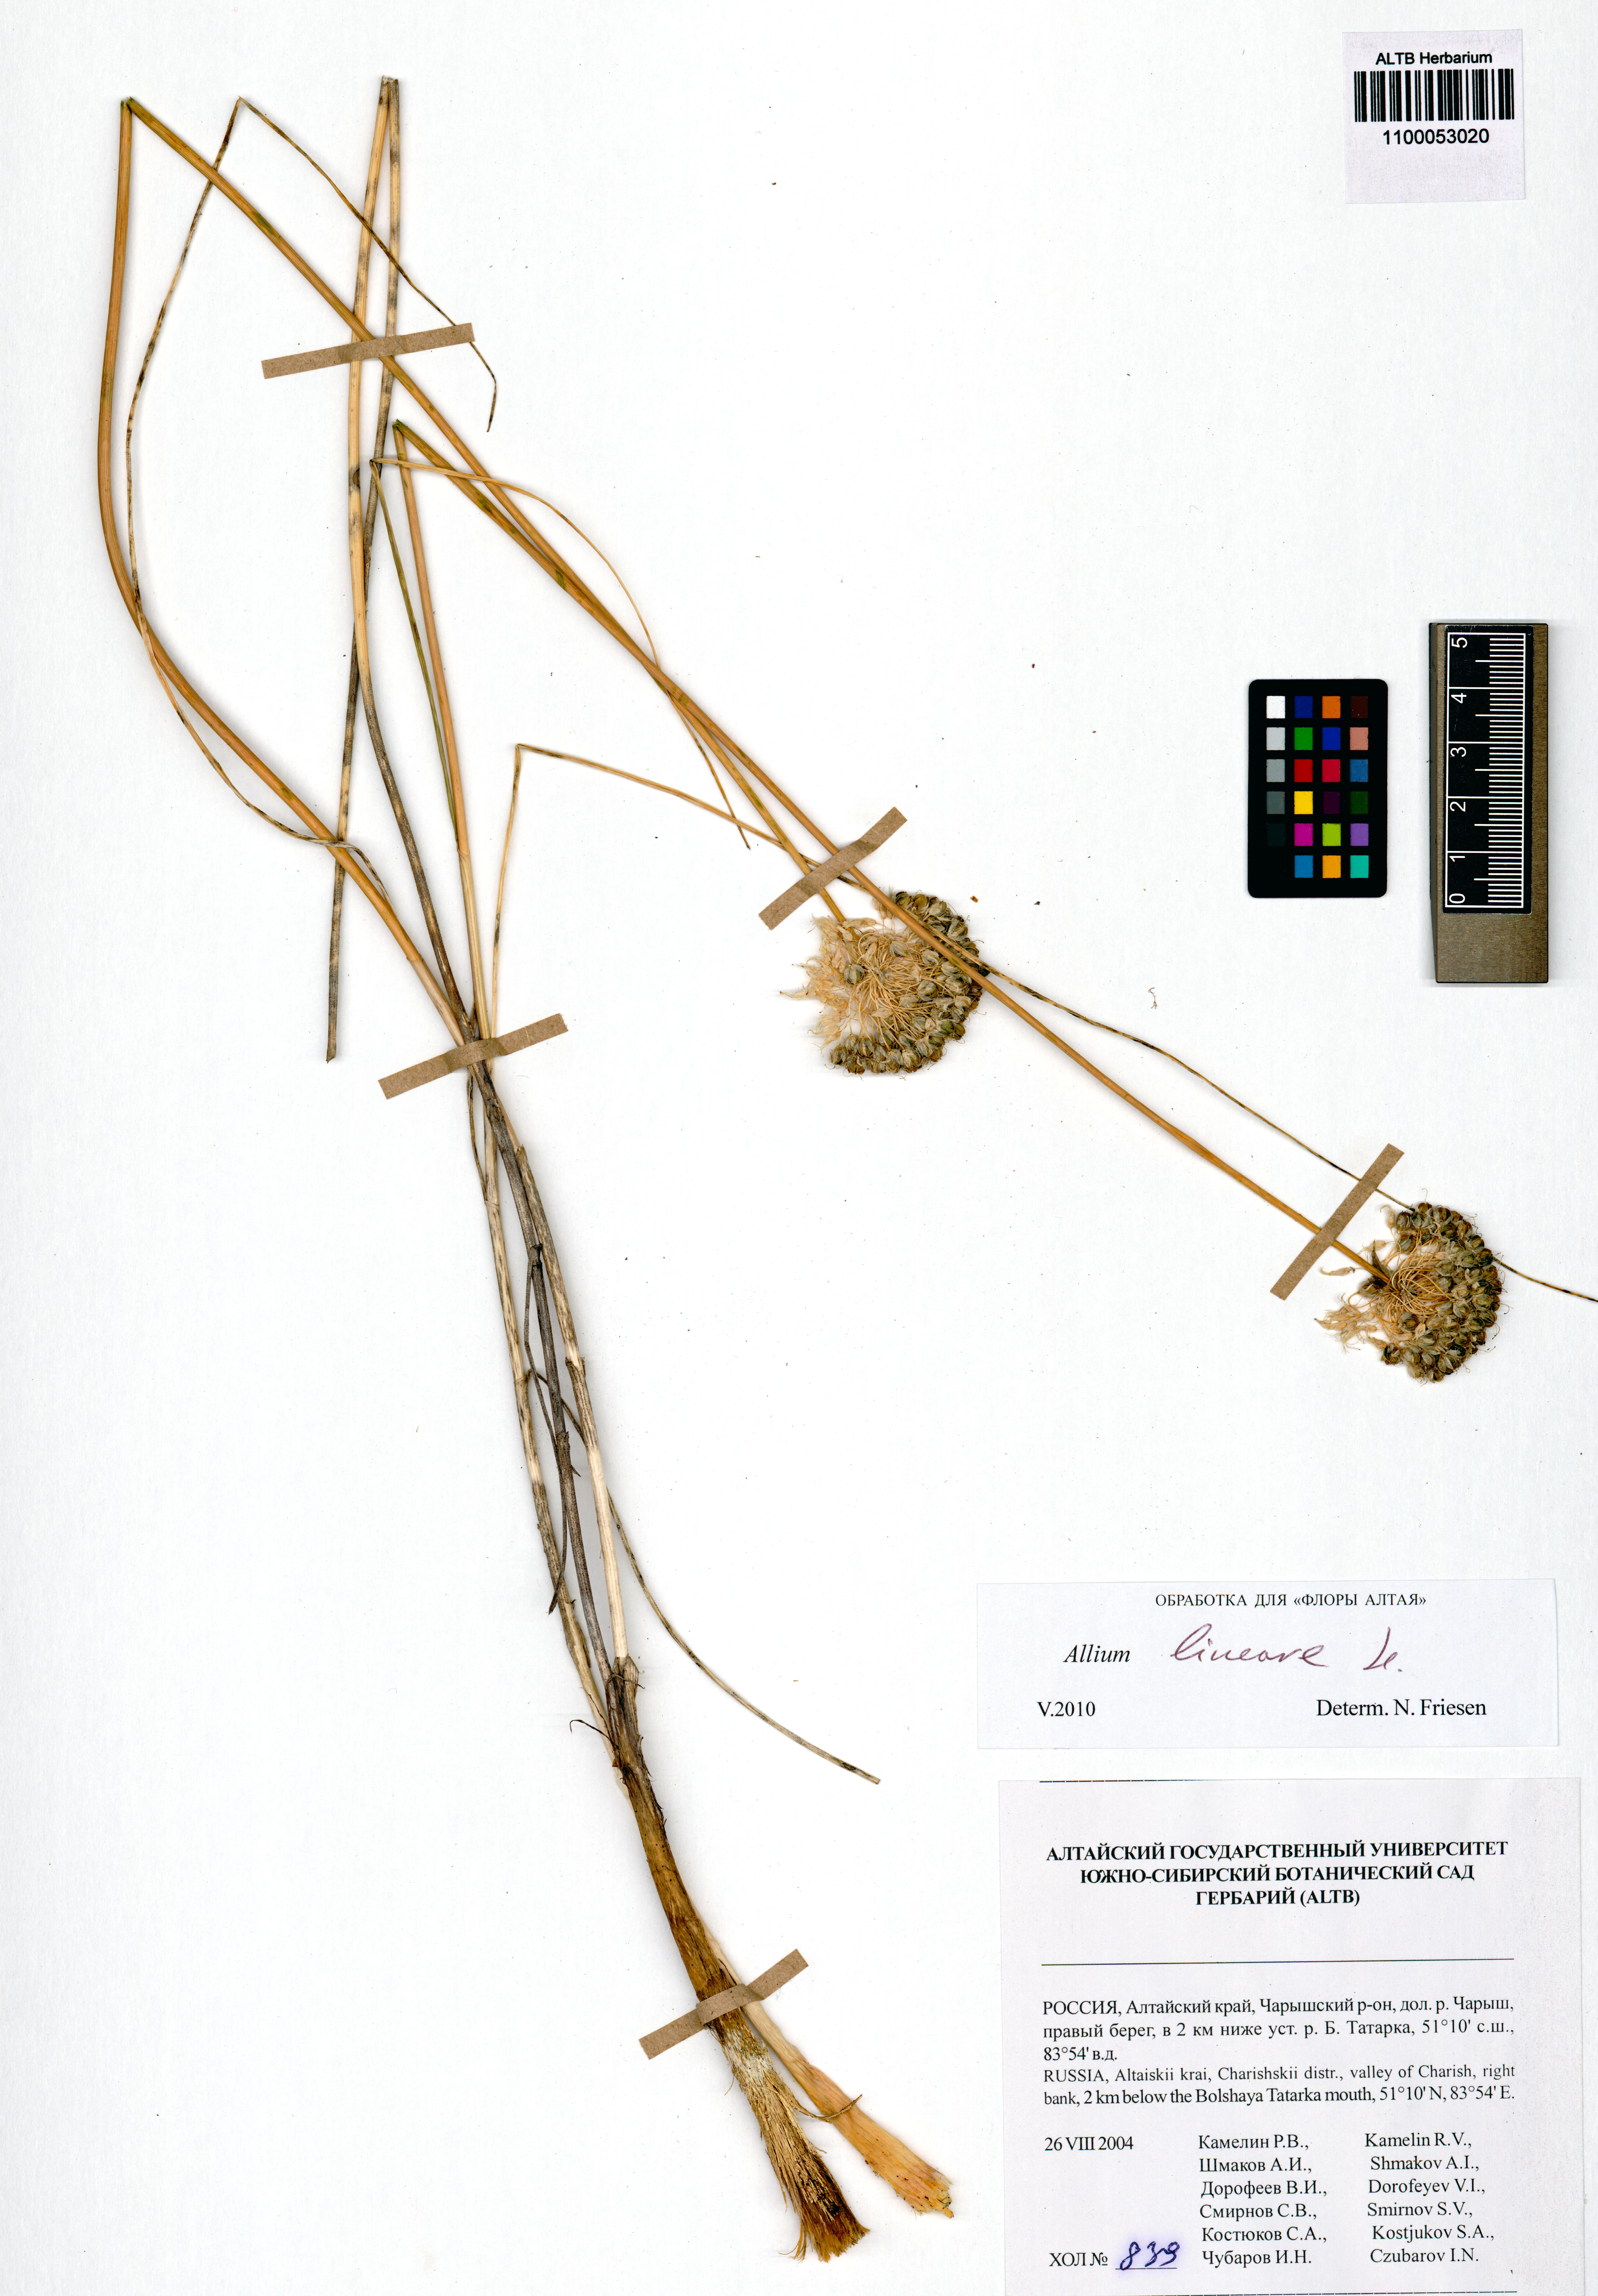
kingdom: Plantae
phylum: Tracheophyta
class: Liliopsida
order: Asparagales
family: Amaryllidaceae
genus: Allium
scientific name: Allium lineare
